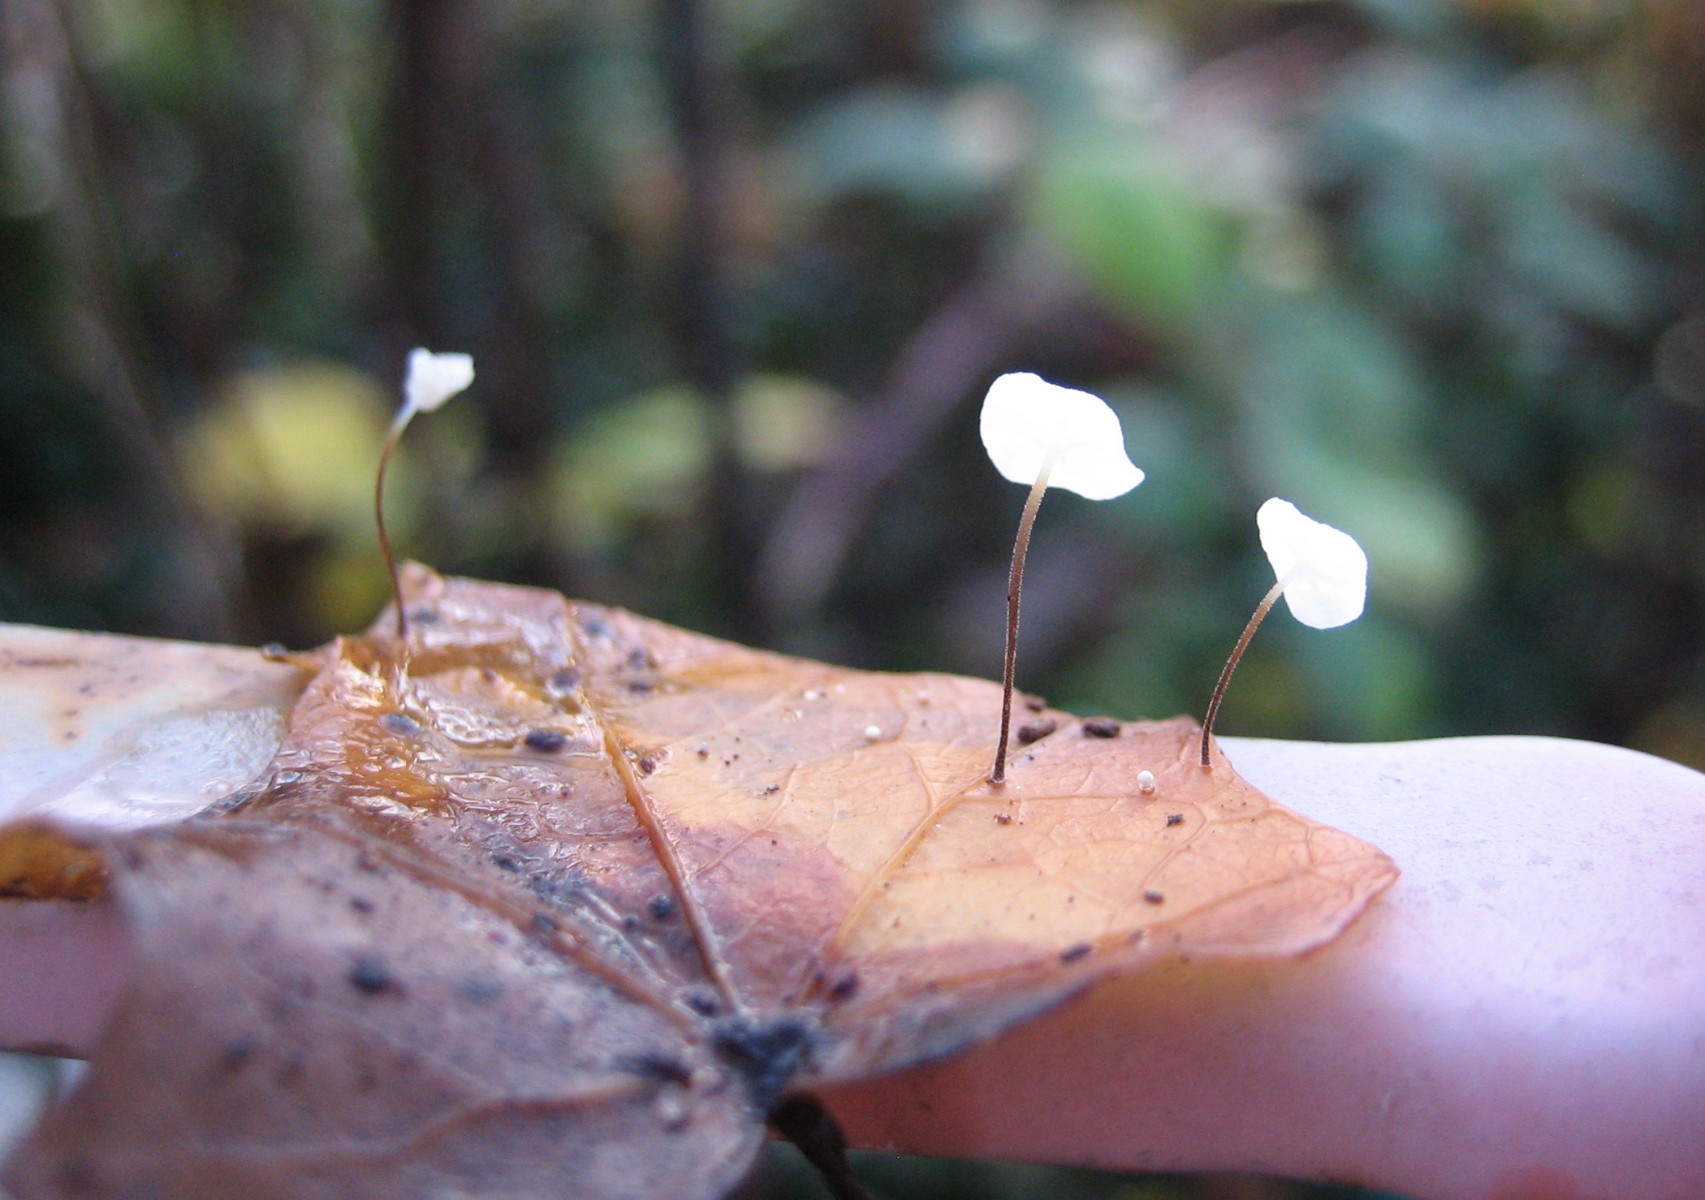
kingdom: Fungi
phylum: Basidiomycota
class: Agaricomycetes
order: Agaricales
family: Marasmiaceae
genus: Marasmius
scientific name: Marasmius epiphylloides
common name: vedbend-bruskhat
